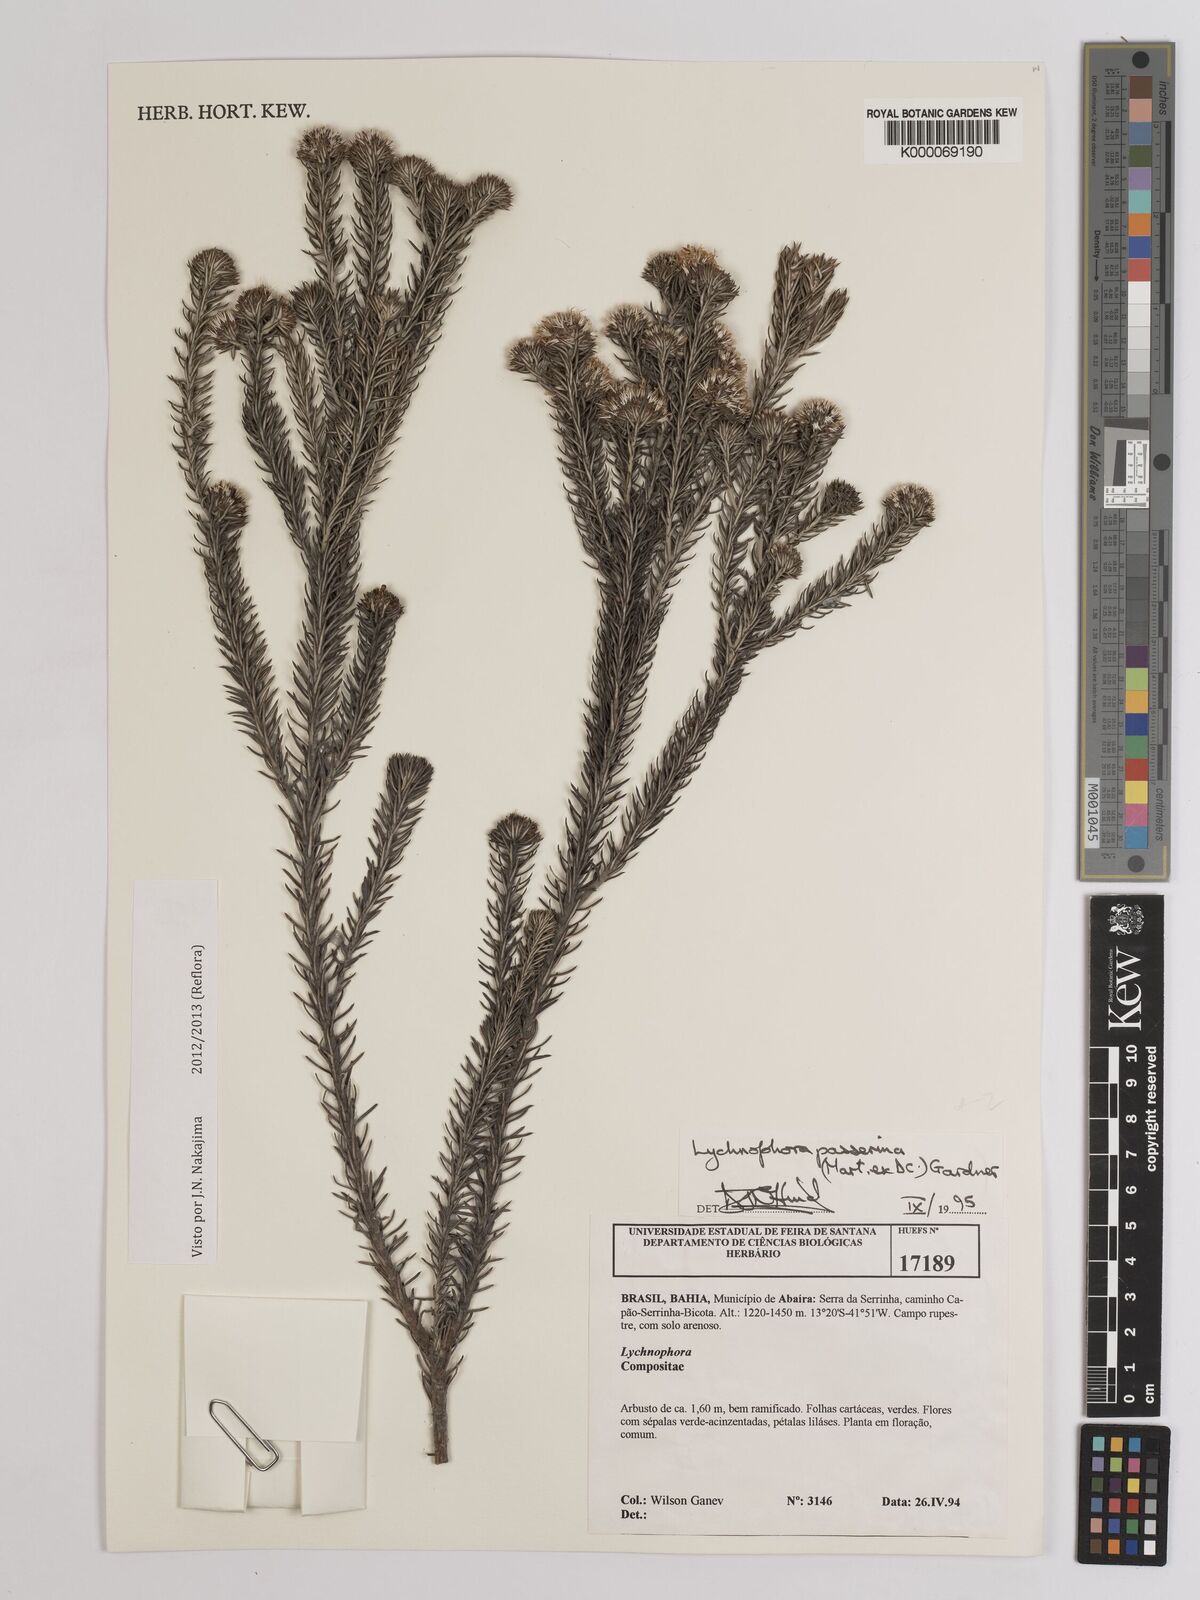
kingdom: Plantae
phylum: Tracheophyta
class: Magnoliopsida
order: Asterales
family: Asteraceae
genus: Lychnophora
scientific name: Lychnophora passerina
